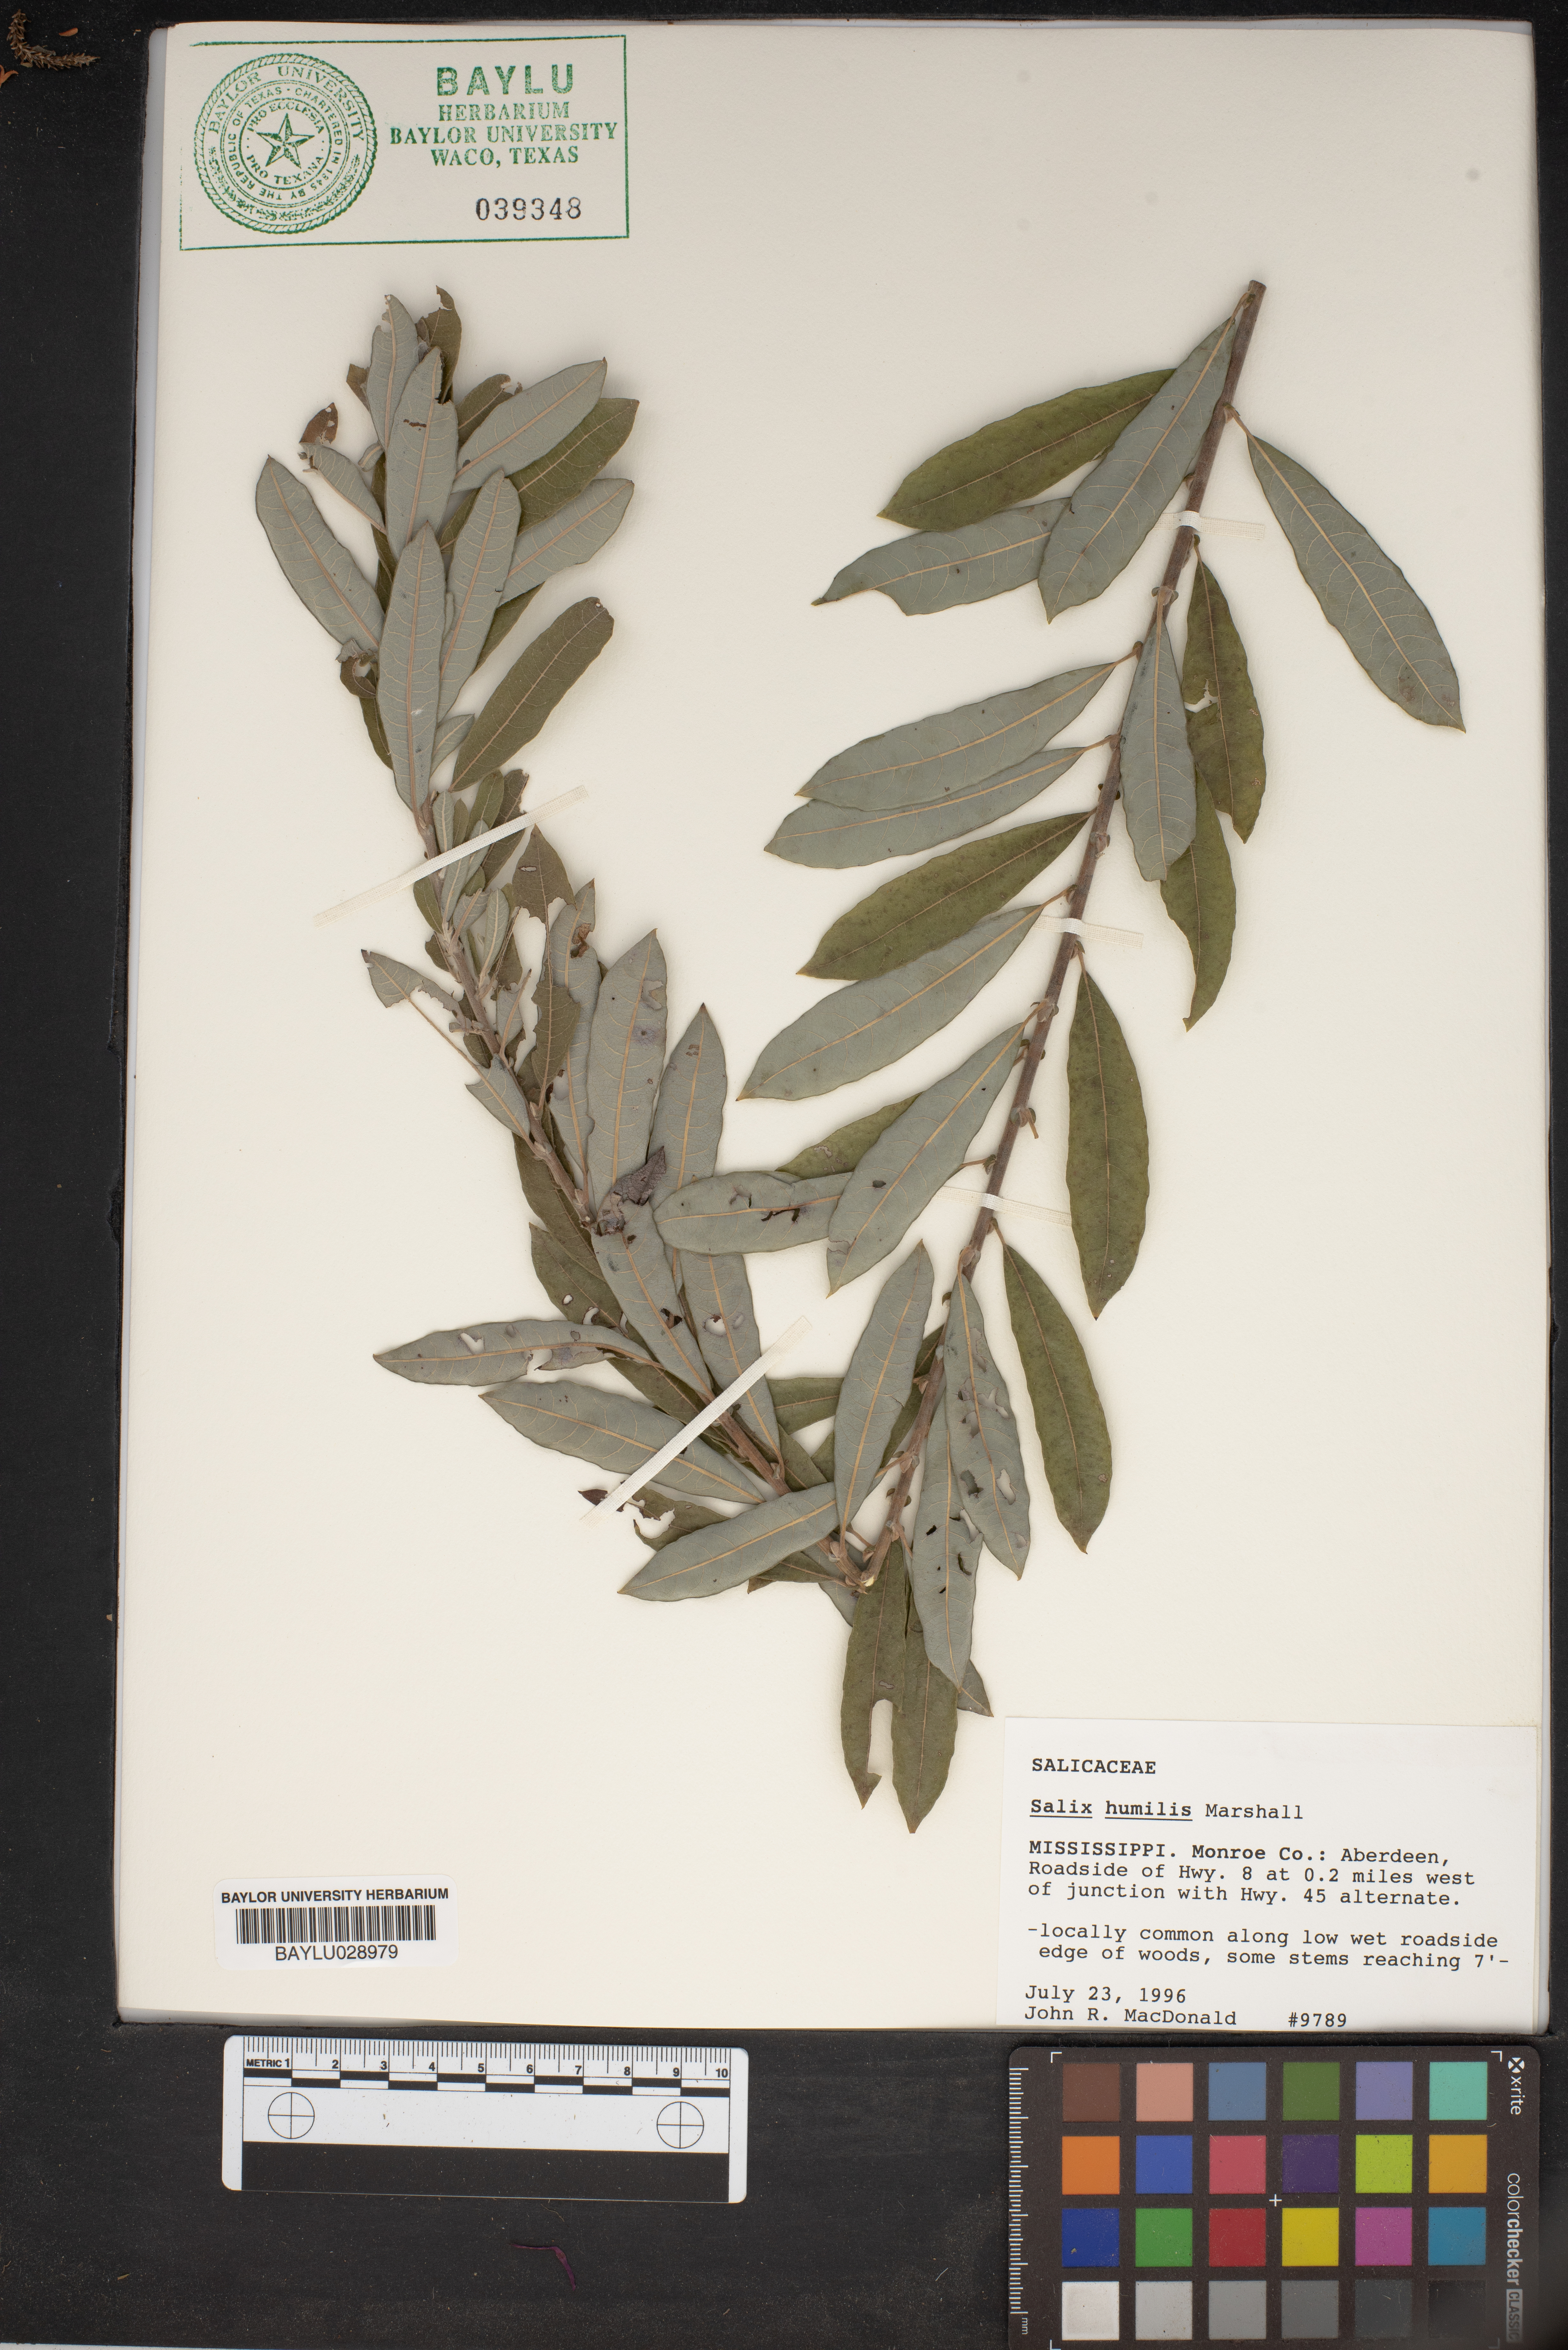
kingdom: Plantae
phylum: Tracheophyta
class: Magnoliopsida
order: Malpighiales
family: Salicaceae
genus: Salix
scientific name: Salix humilis
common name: Prairie willow
